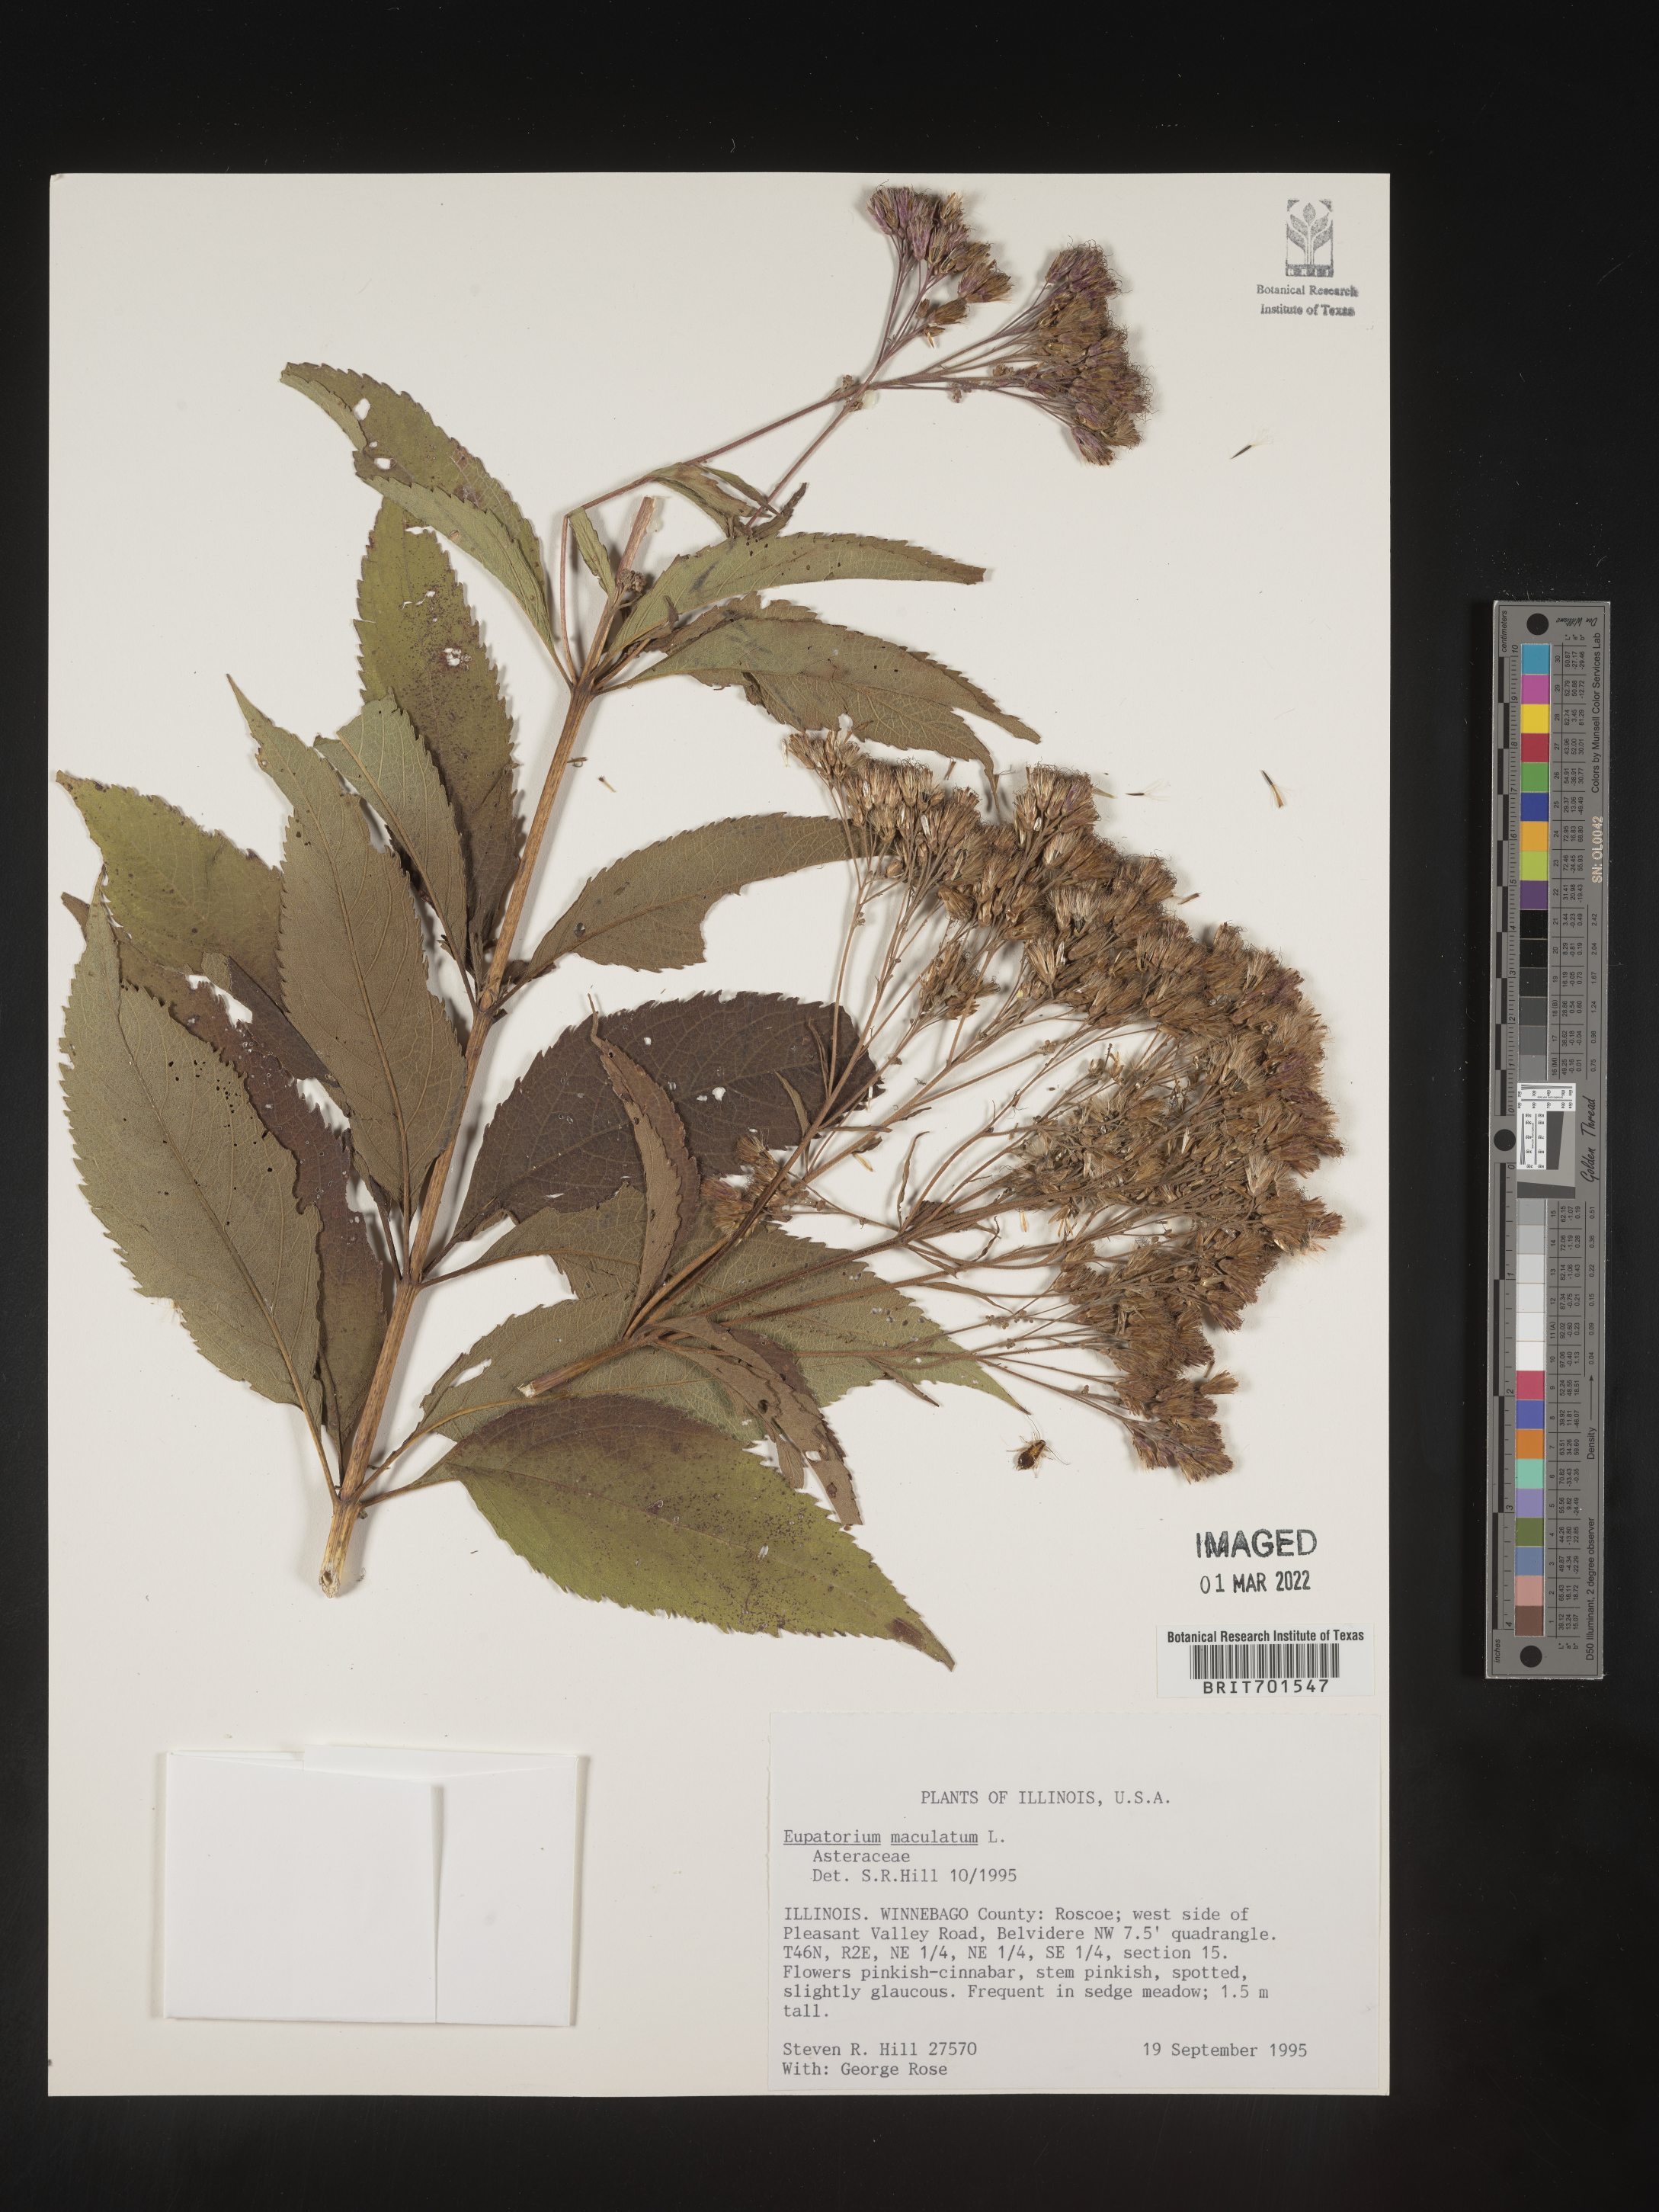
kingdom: Plantae
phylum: Tracheophyta
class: Magnoliopsida
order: Asterales
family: Asteraceae
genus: Eutrochium
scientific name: Eutrochium maculatum
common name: Spotted joe pye weed
